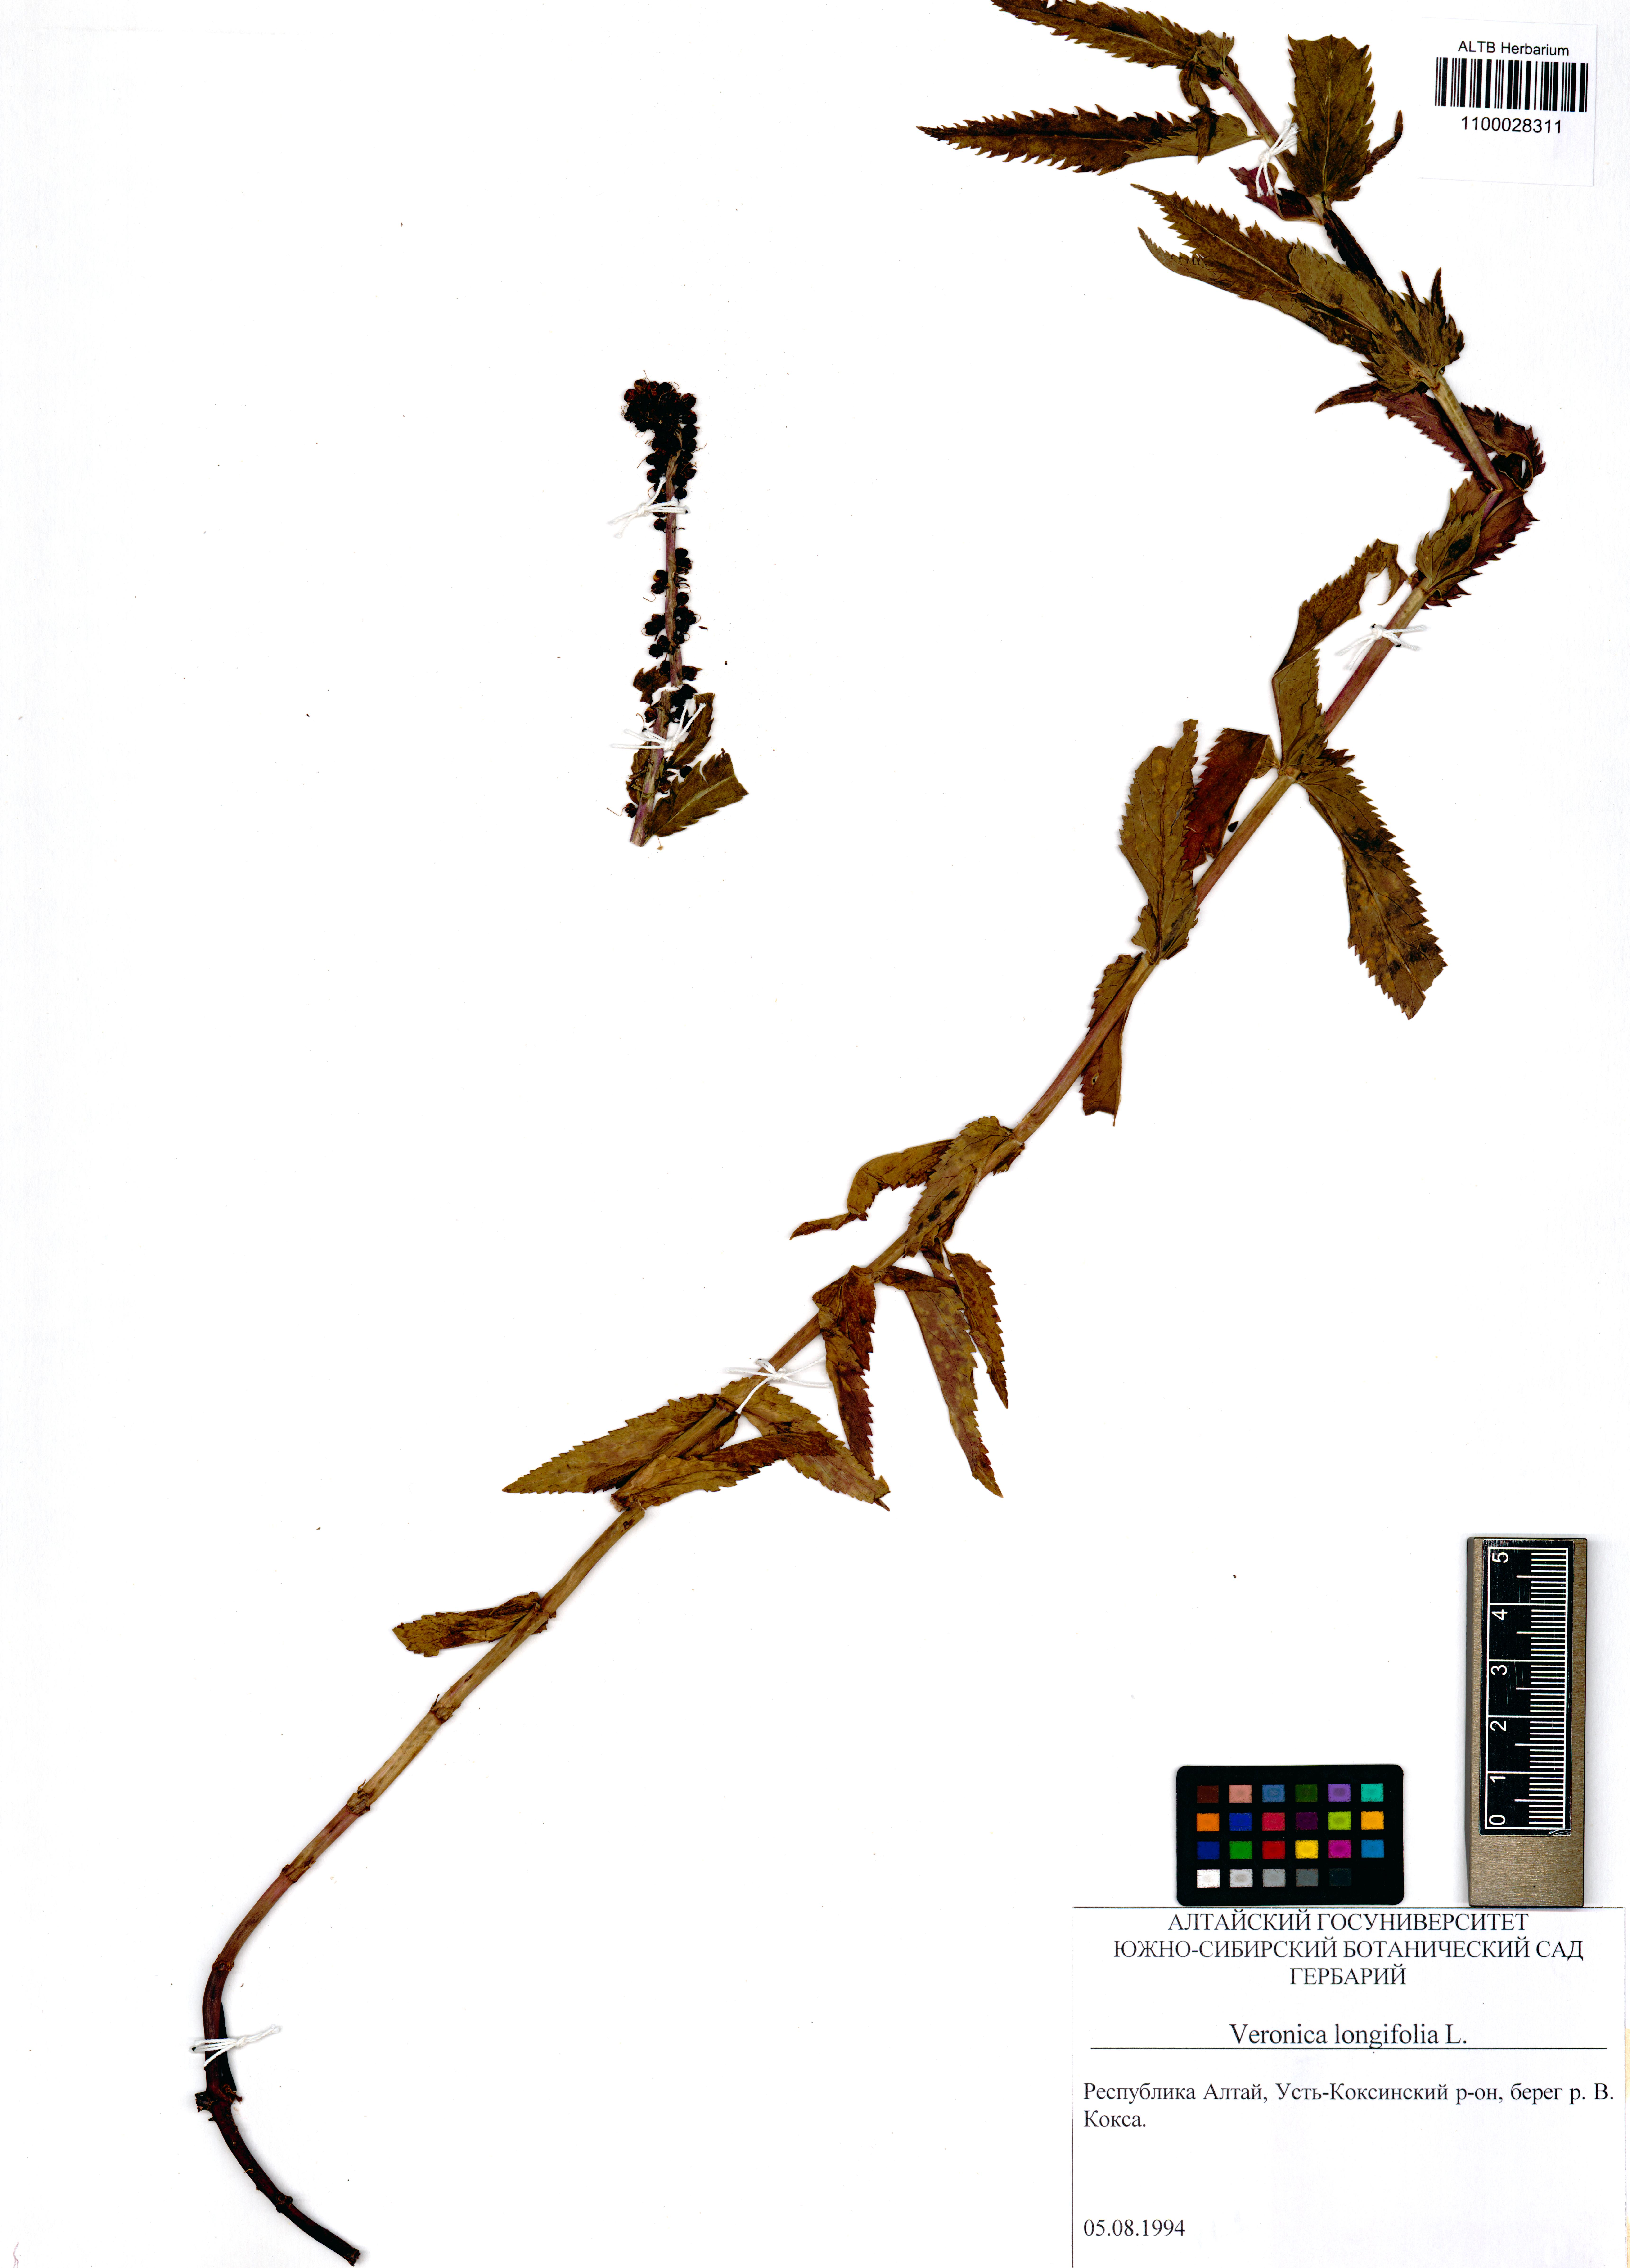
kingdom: Plantae
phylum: Tracheophyta
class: Magnoliopsida
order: Lamiales
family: Plantaginaceae
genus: Veronica
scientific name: Veronica longifolia
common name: Garden speedwell
